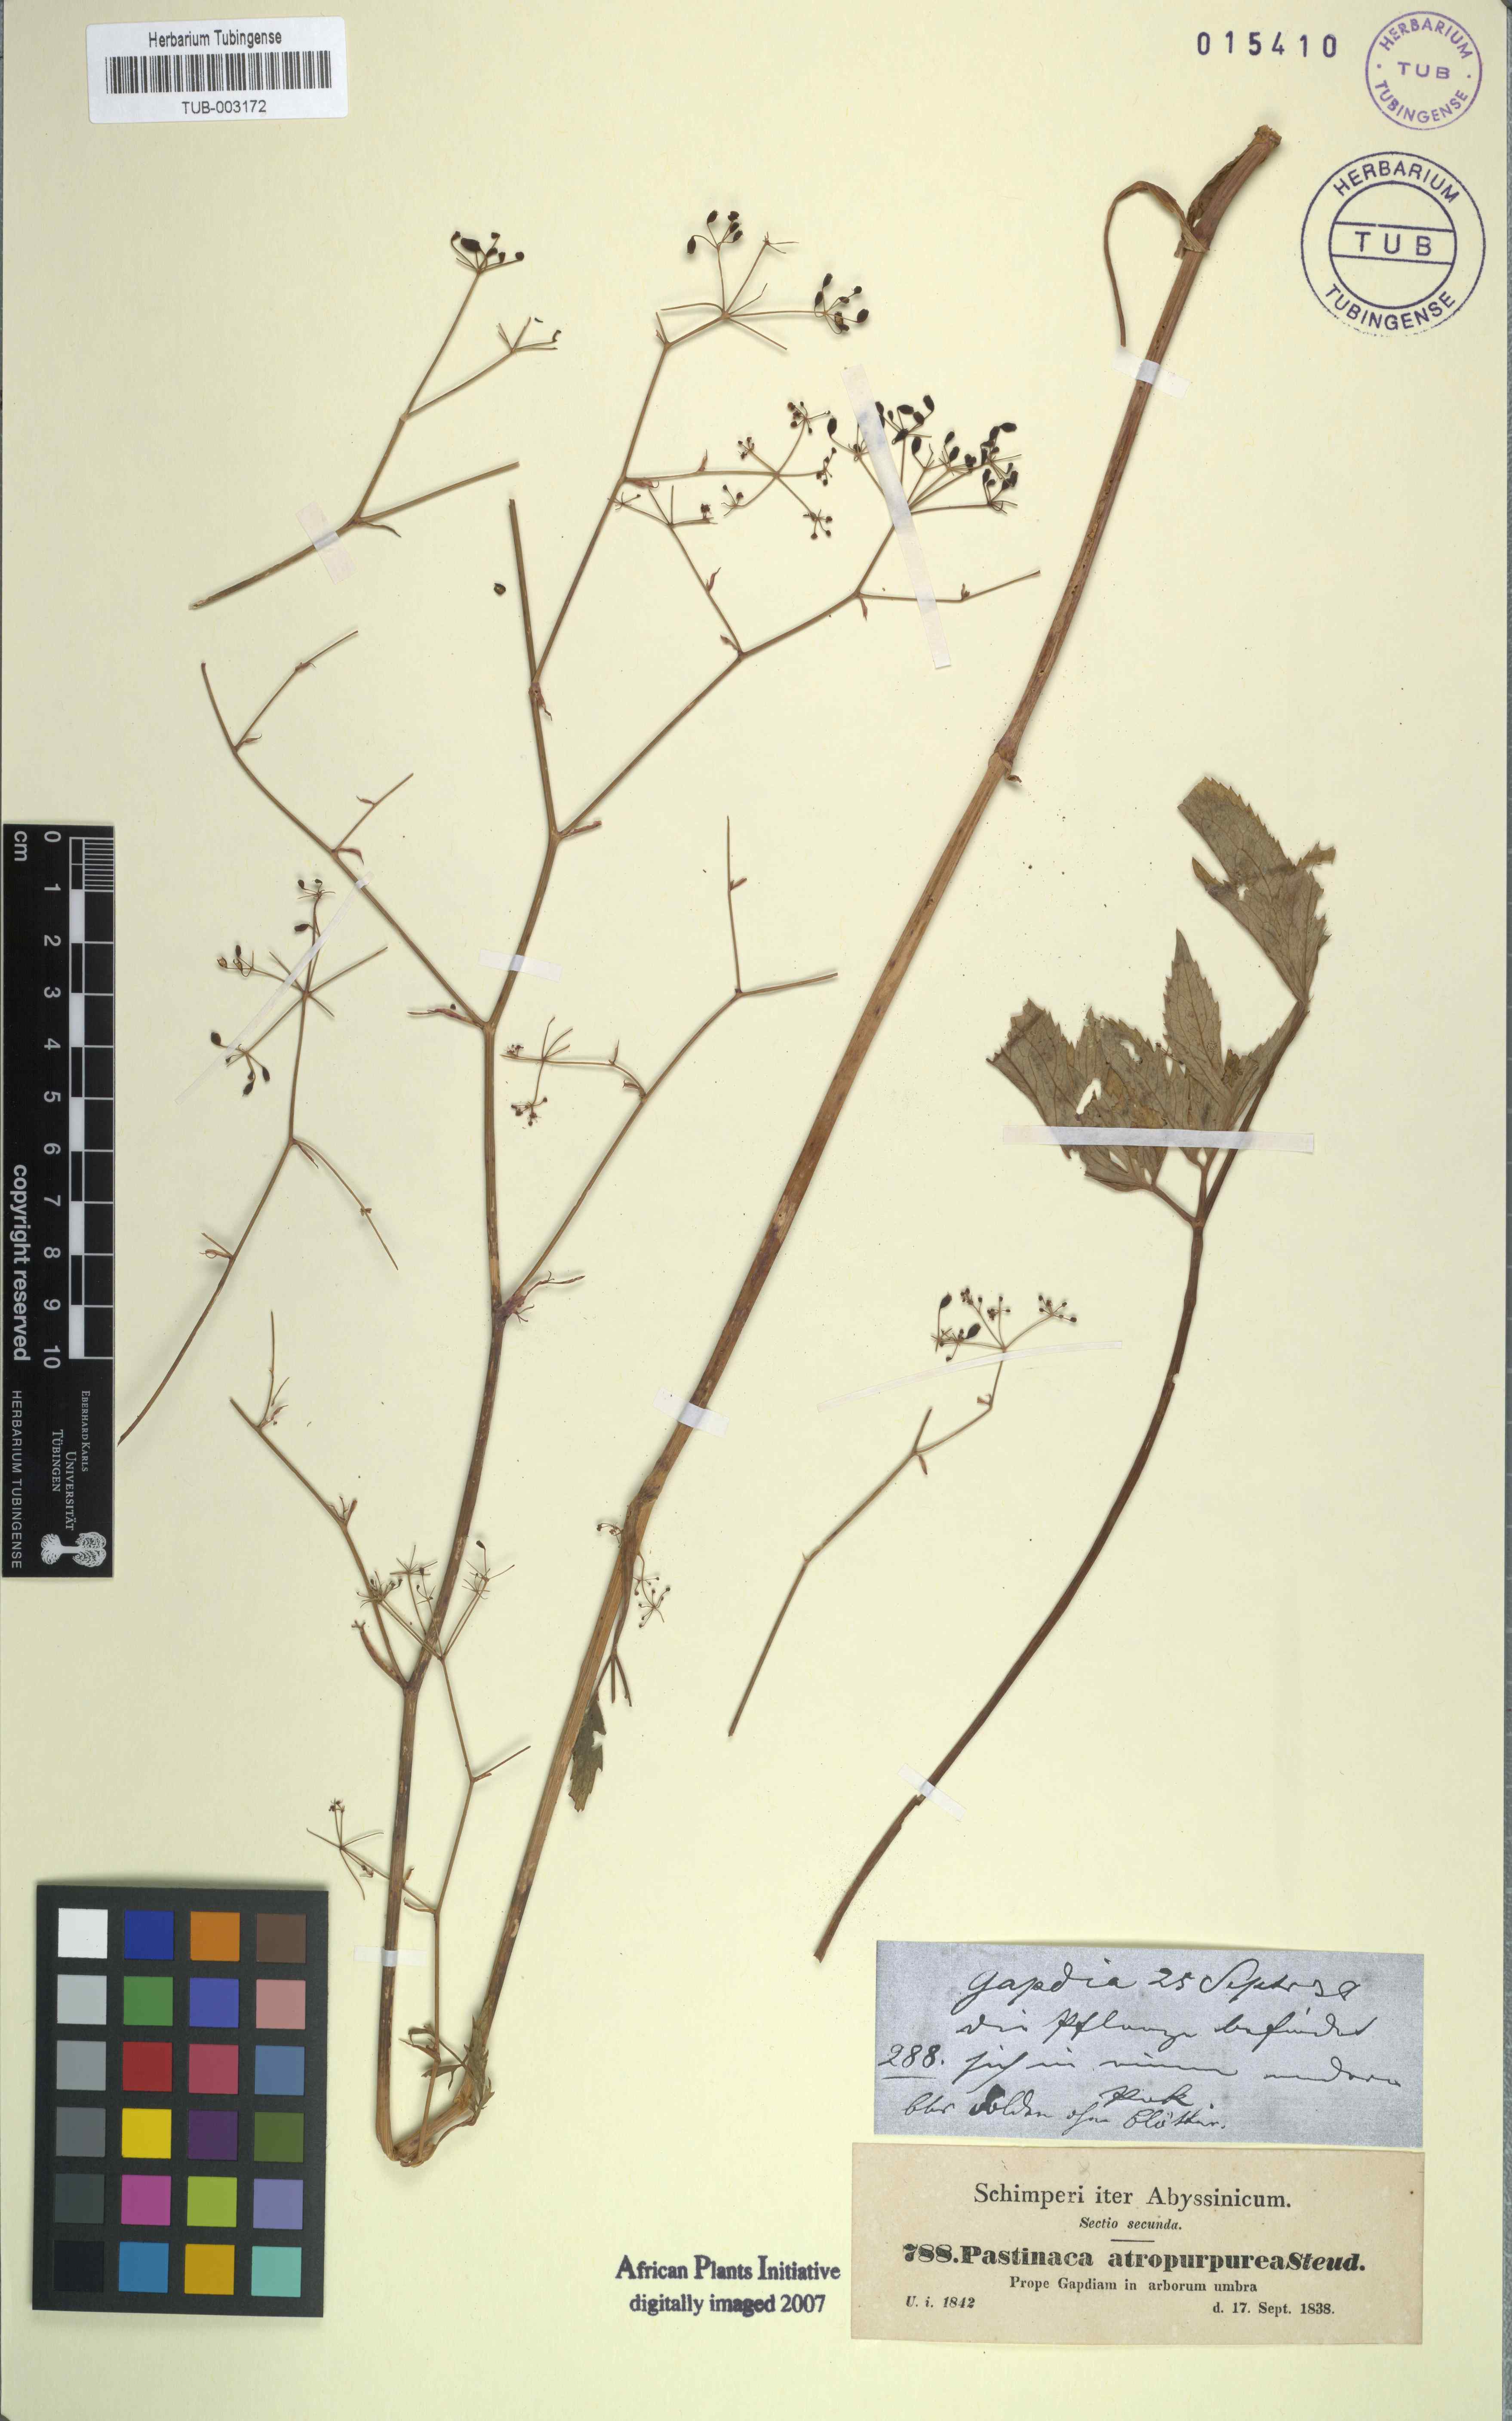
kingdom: Plantae
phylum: Tracheophyta
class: Magnoliopsida
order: Apiales
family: Apiaceae
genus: Lefebvrea
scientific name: Lefebvrea atropurpurea
